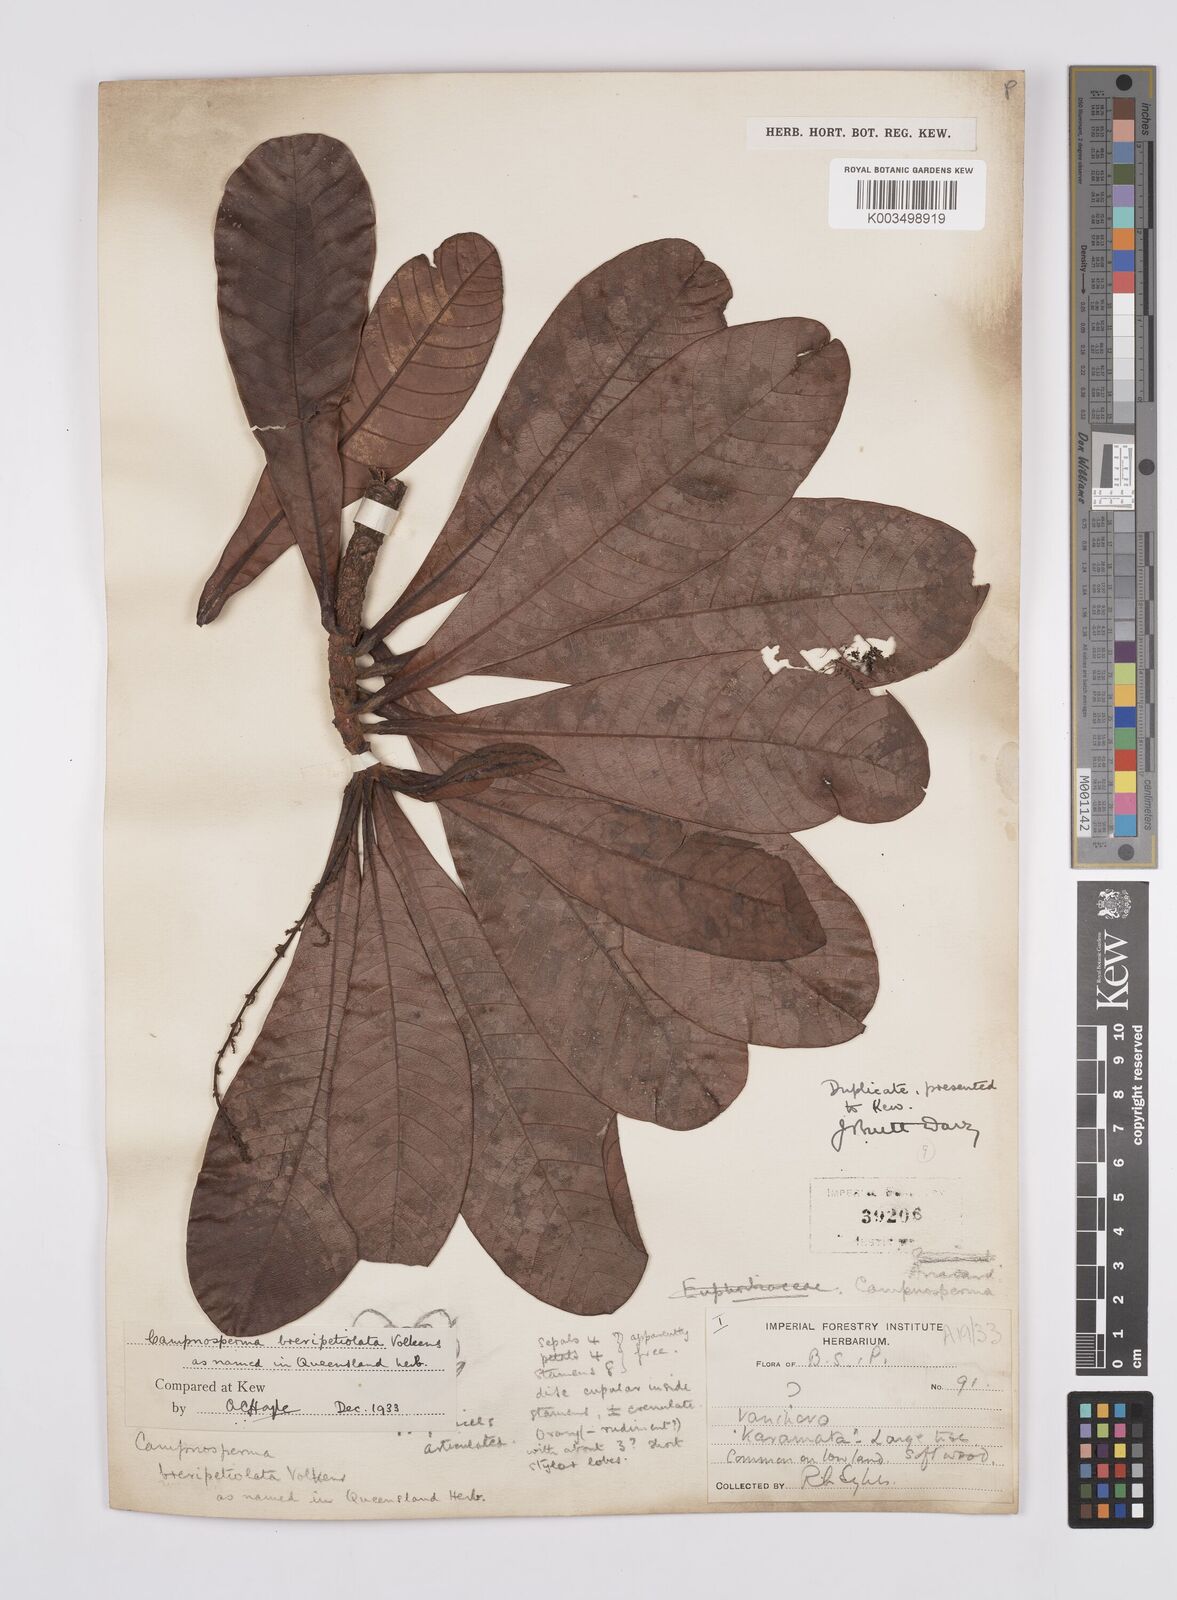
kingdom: Plantae
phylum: Tracheophyta
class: Magnoliopsida
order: Sapindales
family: Anacardiaceae
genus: Campnosperma
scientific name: Campnosperma brevipetiolatum
